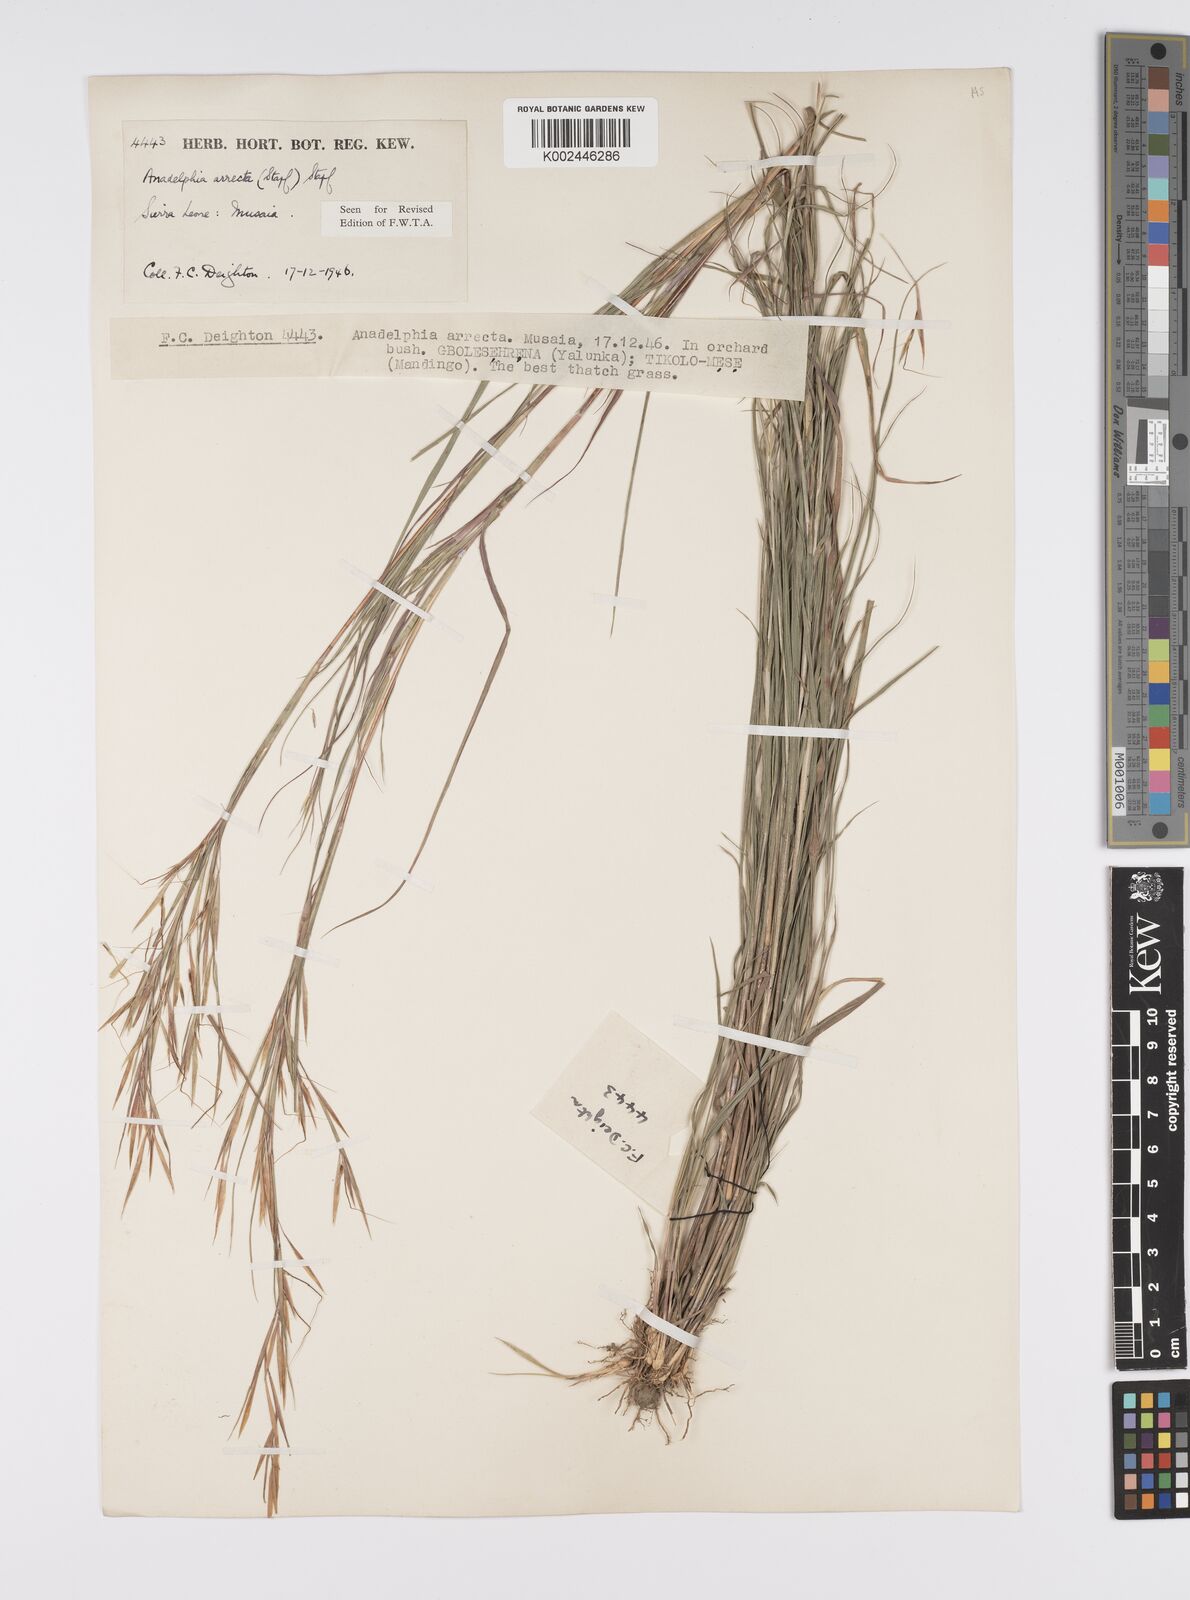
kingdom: Plantae
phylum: Tracheophyta
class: Liliopsida
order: Poales
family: Poaceae
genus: Anadelphia
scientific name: Anadelphia afzeliana
